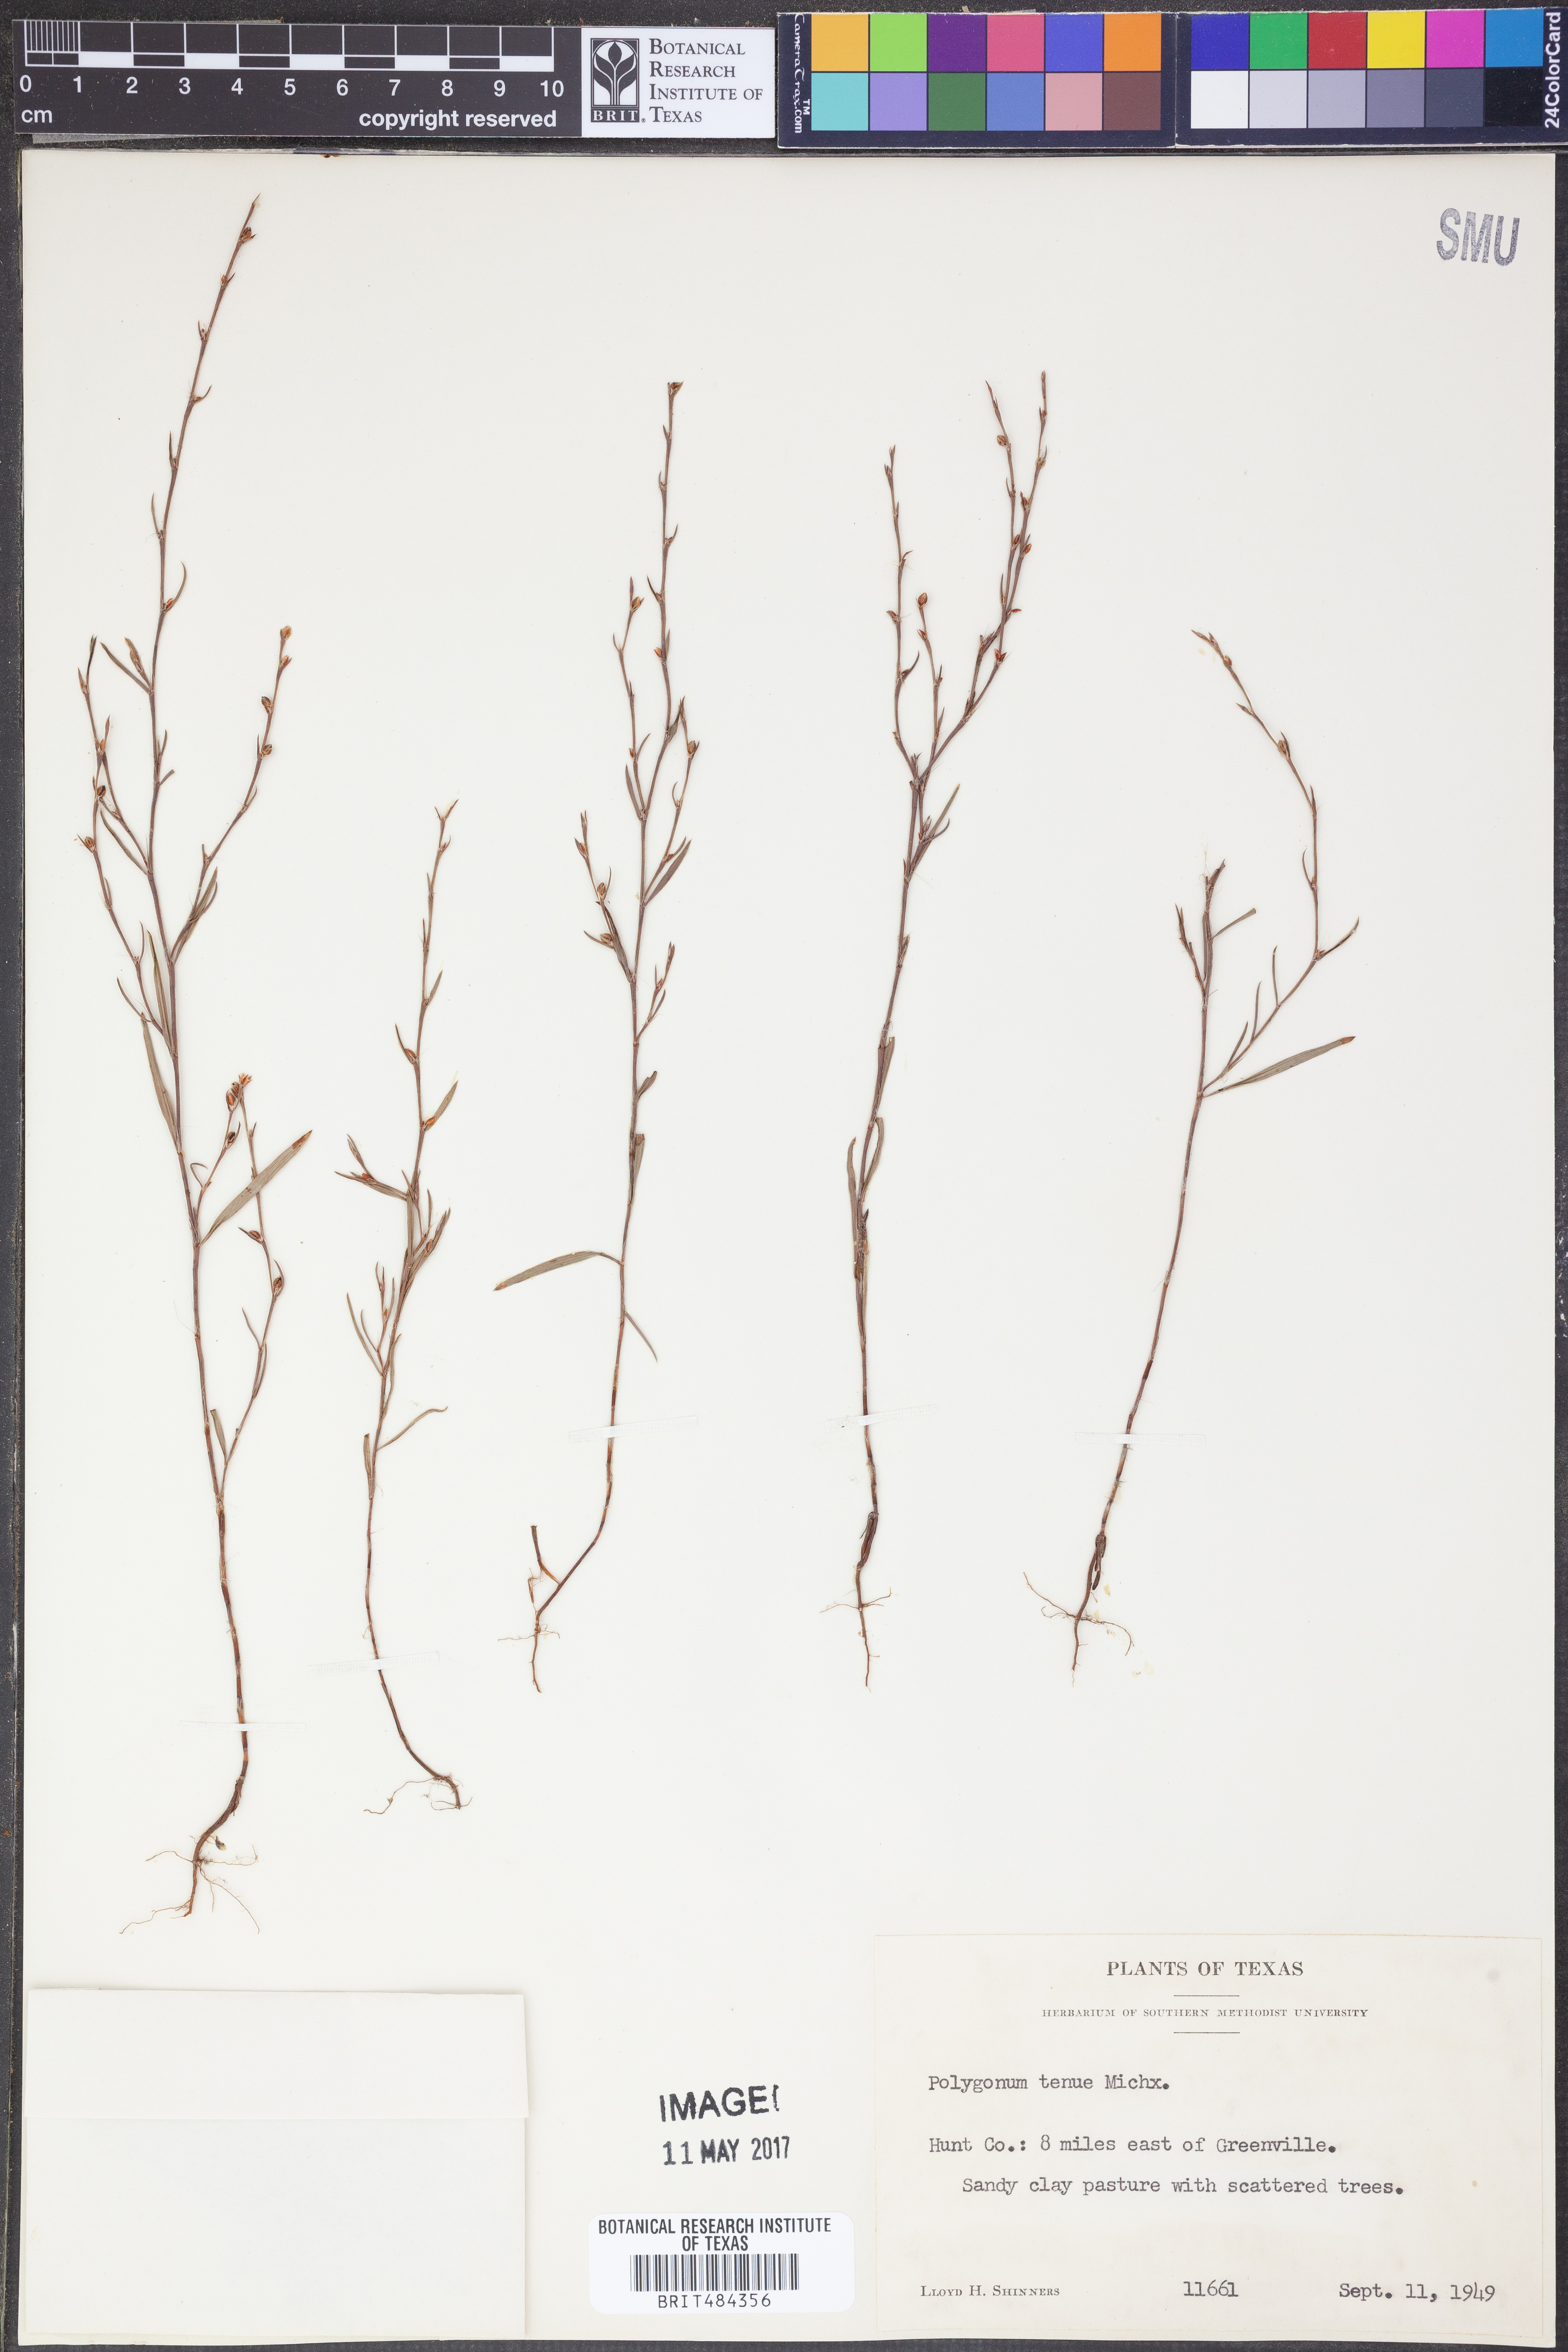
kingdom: Plantae
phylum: Tracheophyta
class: Magnoliopsida
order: Caryophyllales
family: Polygonaceae
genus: Polygonum
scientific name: Polygonum tenue
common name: Pleat-leaved knotweed
